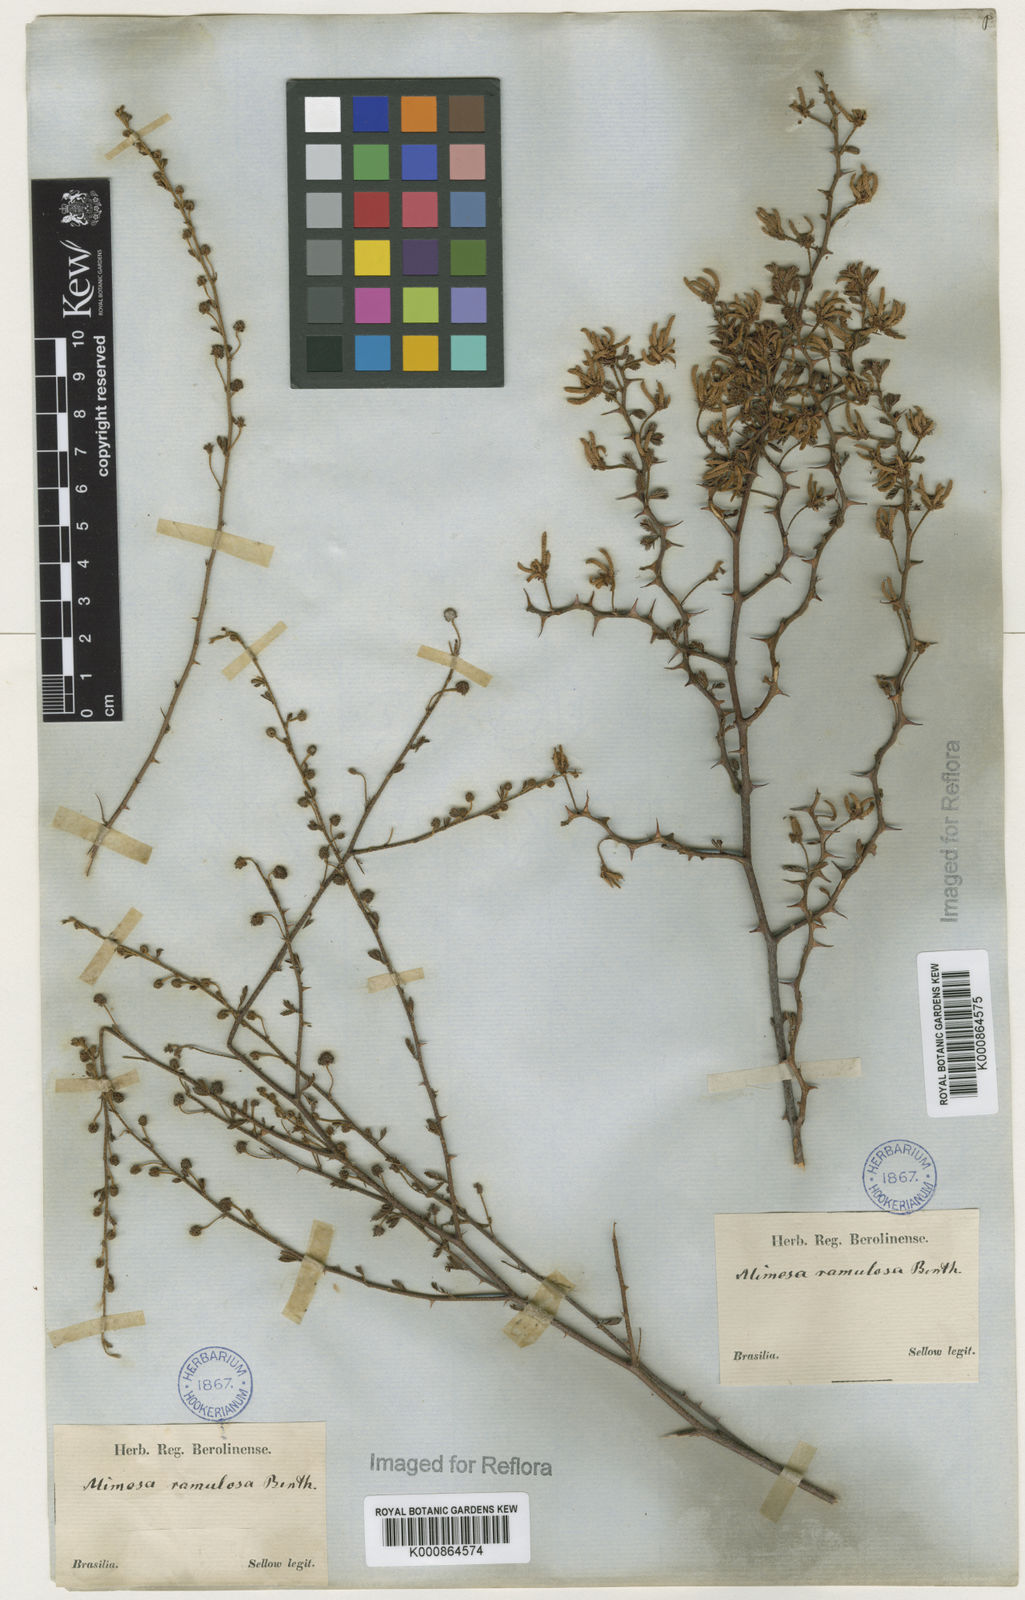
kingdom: Plantae
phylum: Tracheophyta
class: Magnoliopsida
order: Fabales
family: Fabaceae
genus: Mimosa
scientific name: Mimosa ramulosa
